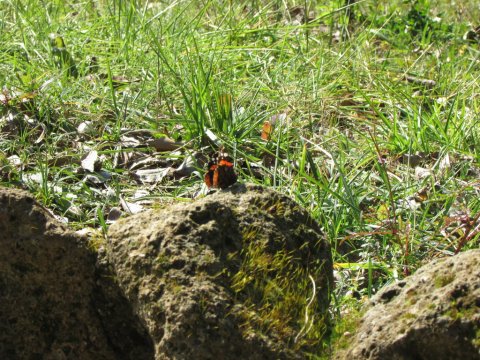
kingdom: Animalia
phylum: Arthropoda
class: Insecta
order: Lepidoptera
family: Nymphalidae
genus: Vanessa
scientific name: Vanessa atalanta
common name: Red Admiral
